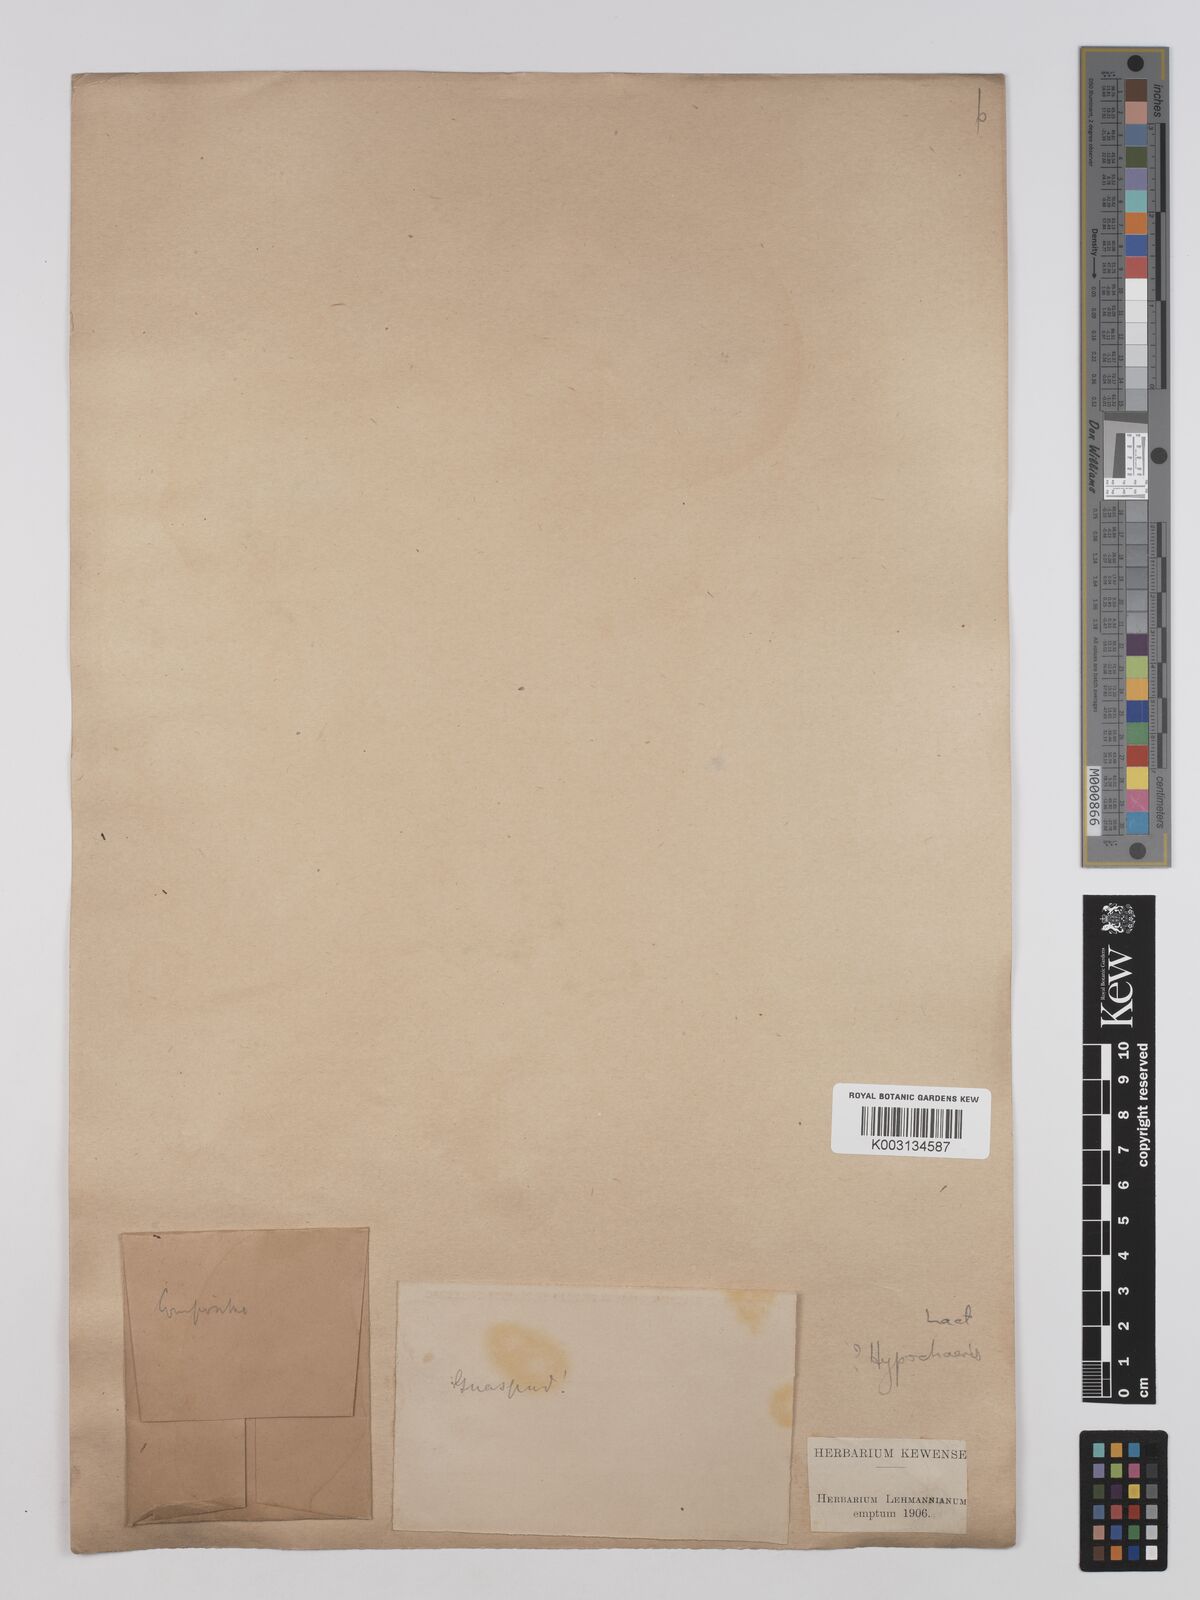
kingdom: Plantae
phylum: Tracheophyta
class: Magnoliopsida
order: Asterales
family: Asteraceae
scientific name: Asteraceae
